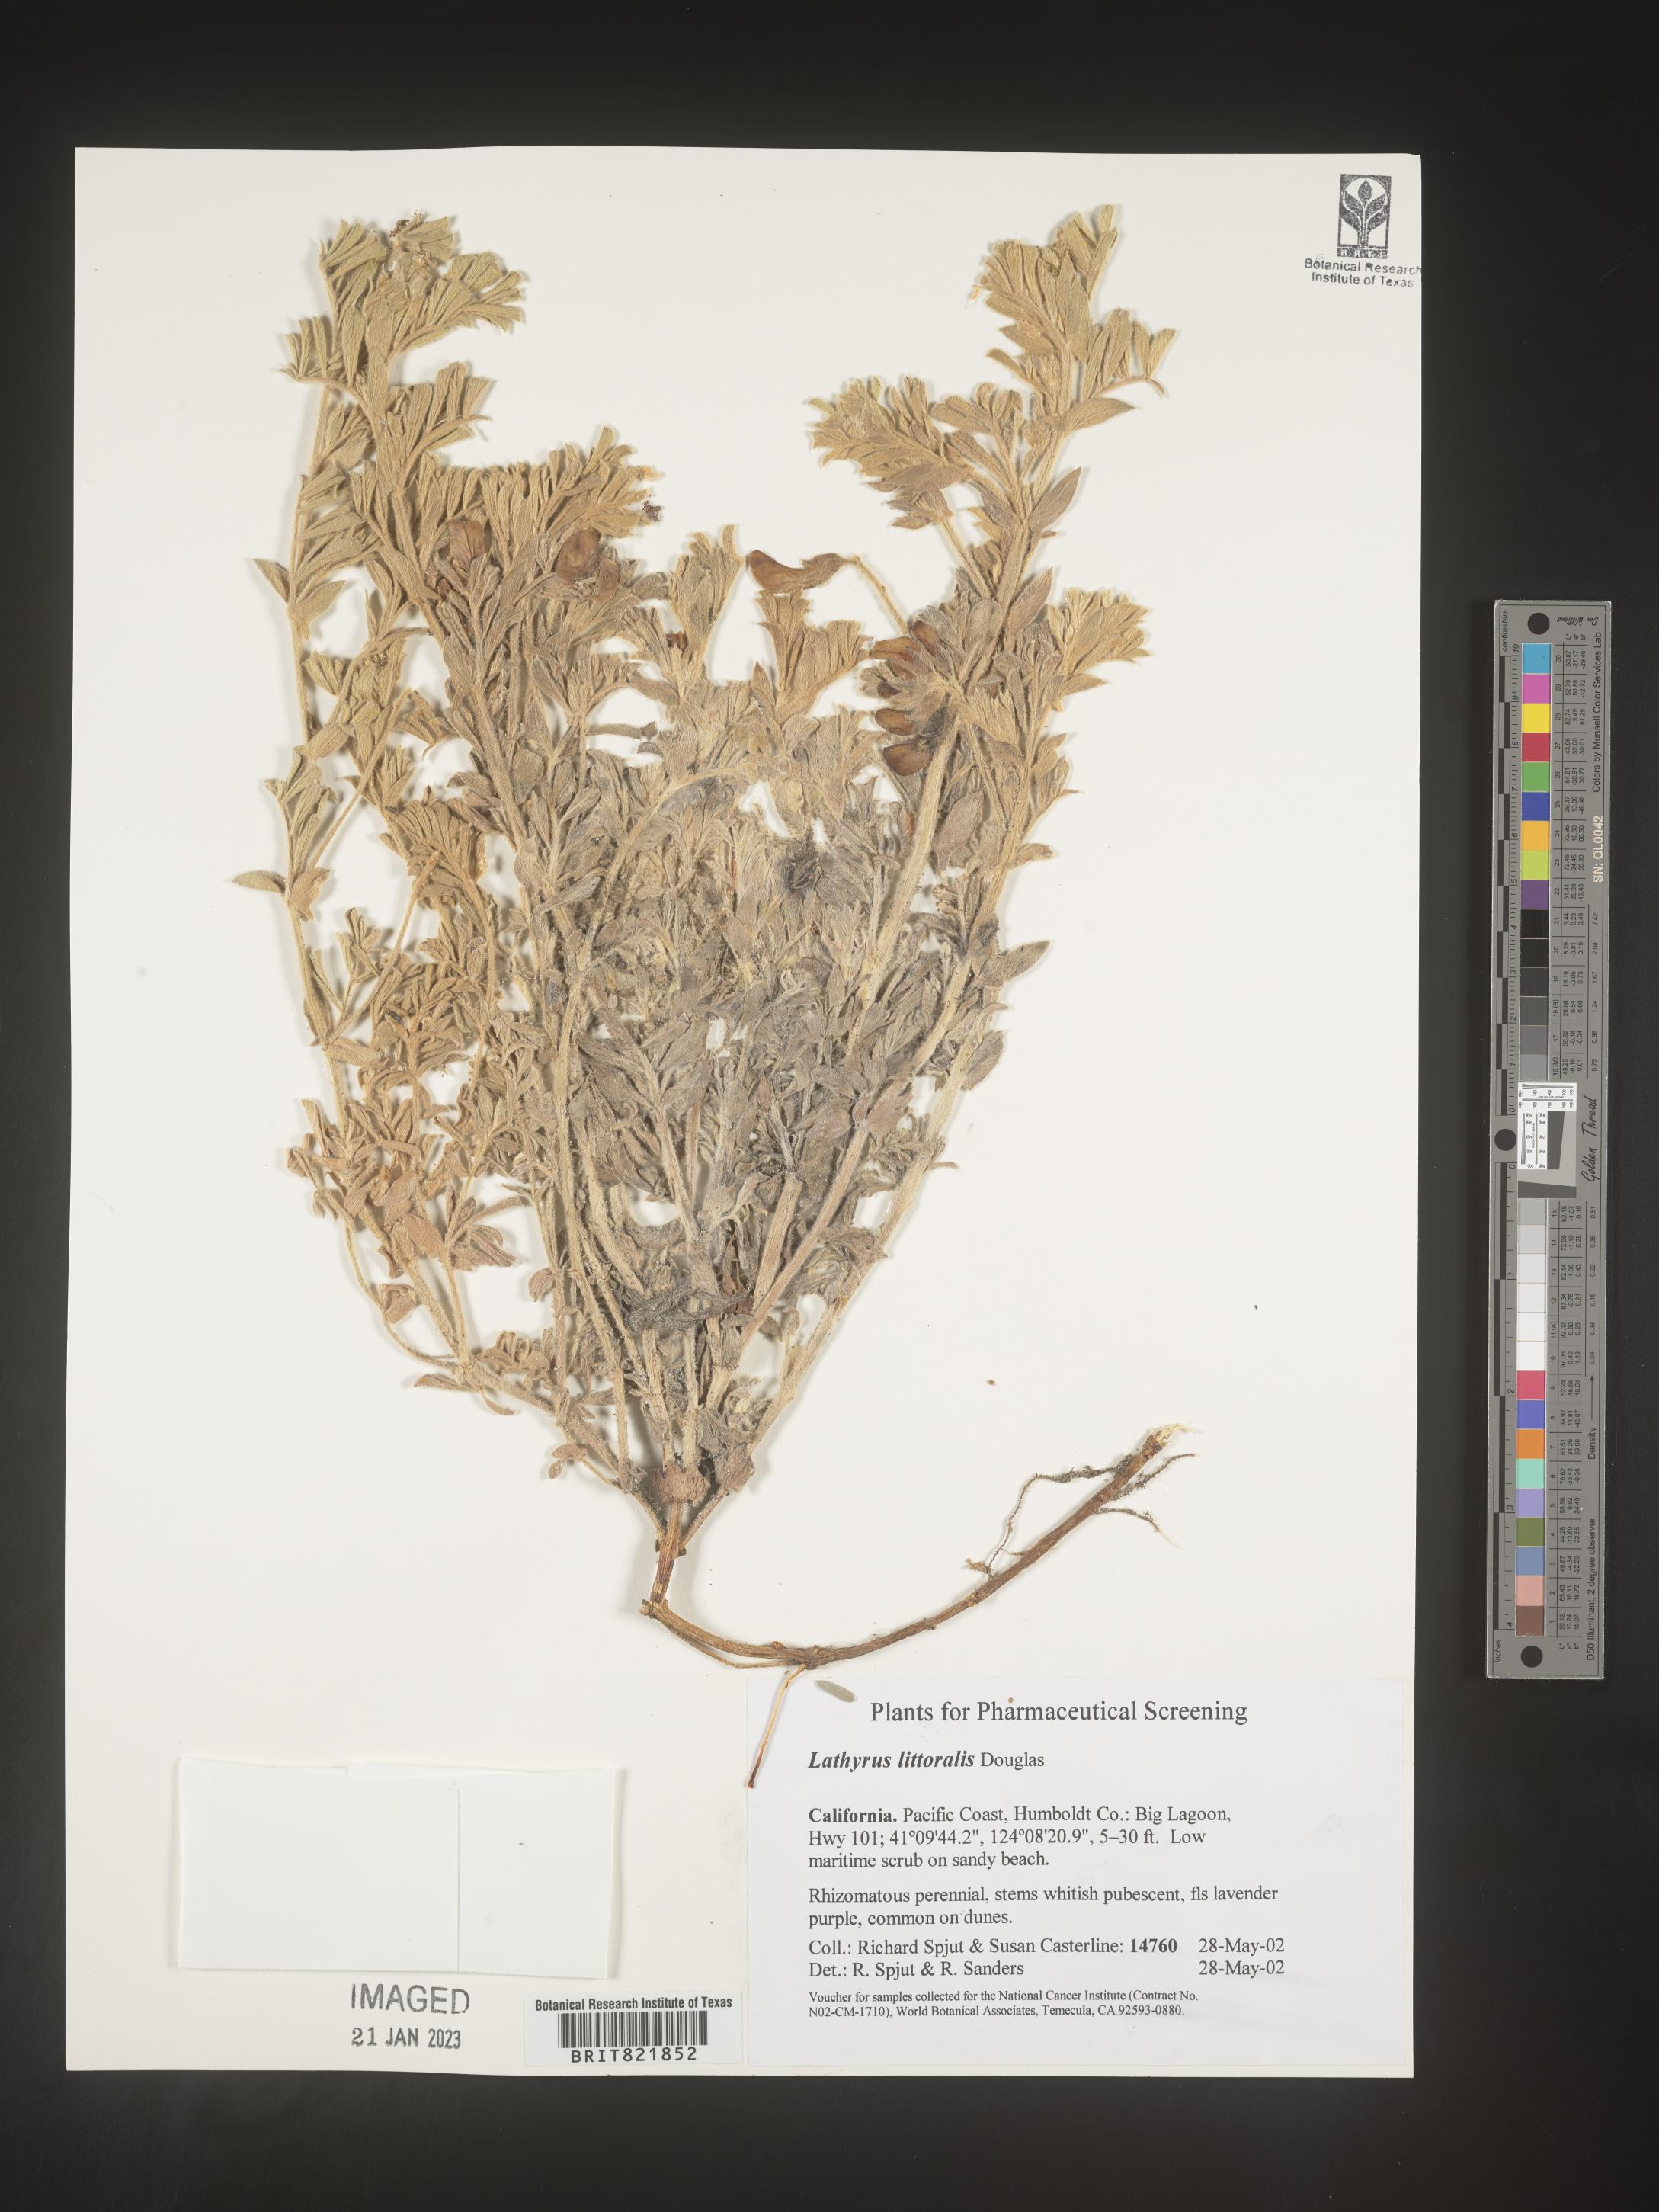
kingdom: Plantae
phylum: Tracheophyta
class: Magnoliopsida
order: Fabales
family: Fabaceae
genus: Lathyrus
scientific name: Lathyrus
